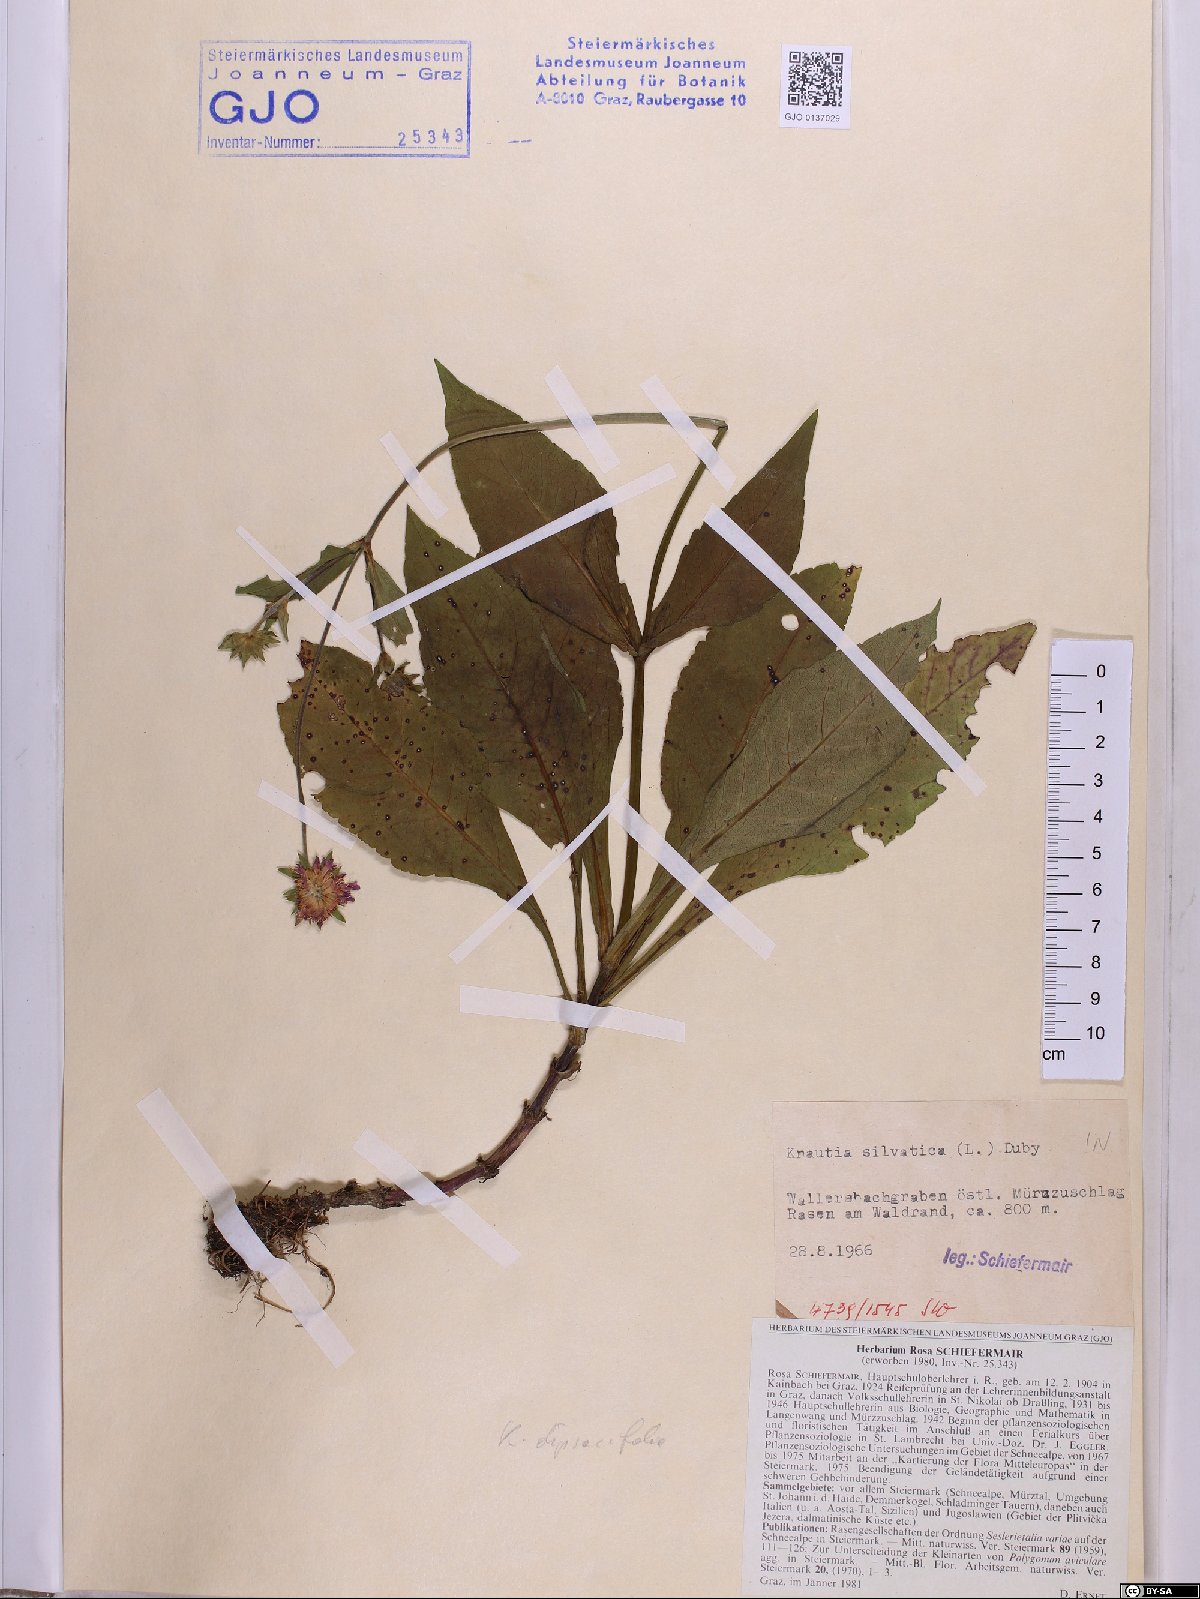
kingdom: Plantae
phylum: Tracheophyta
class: Magnoliopsida
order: Dipsacales
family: Caprifoliaceae
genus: Knautia
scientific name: Knautia drymeia
